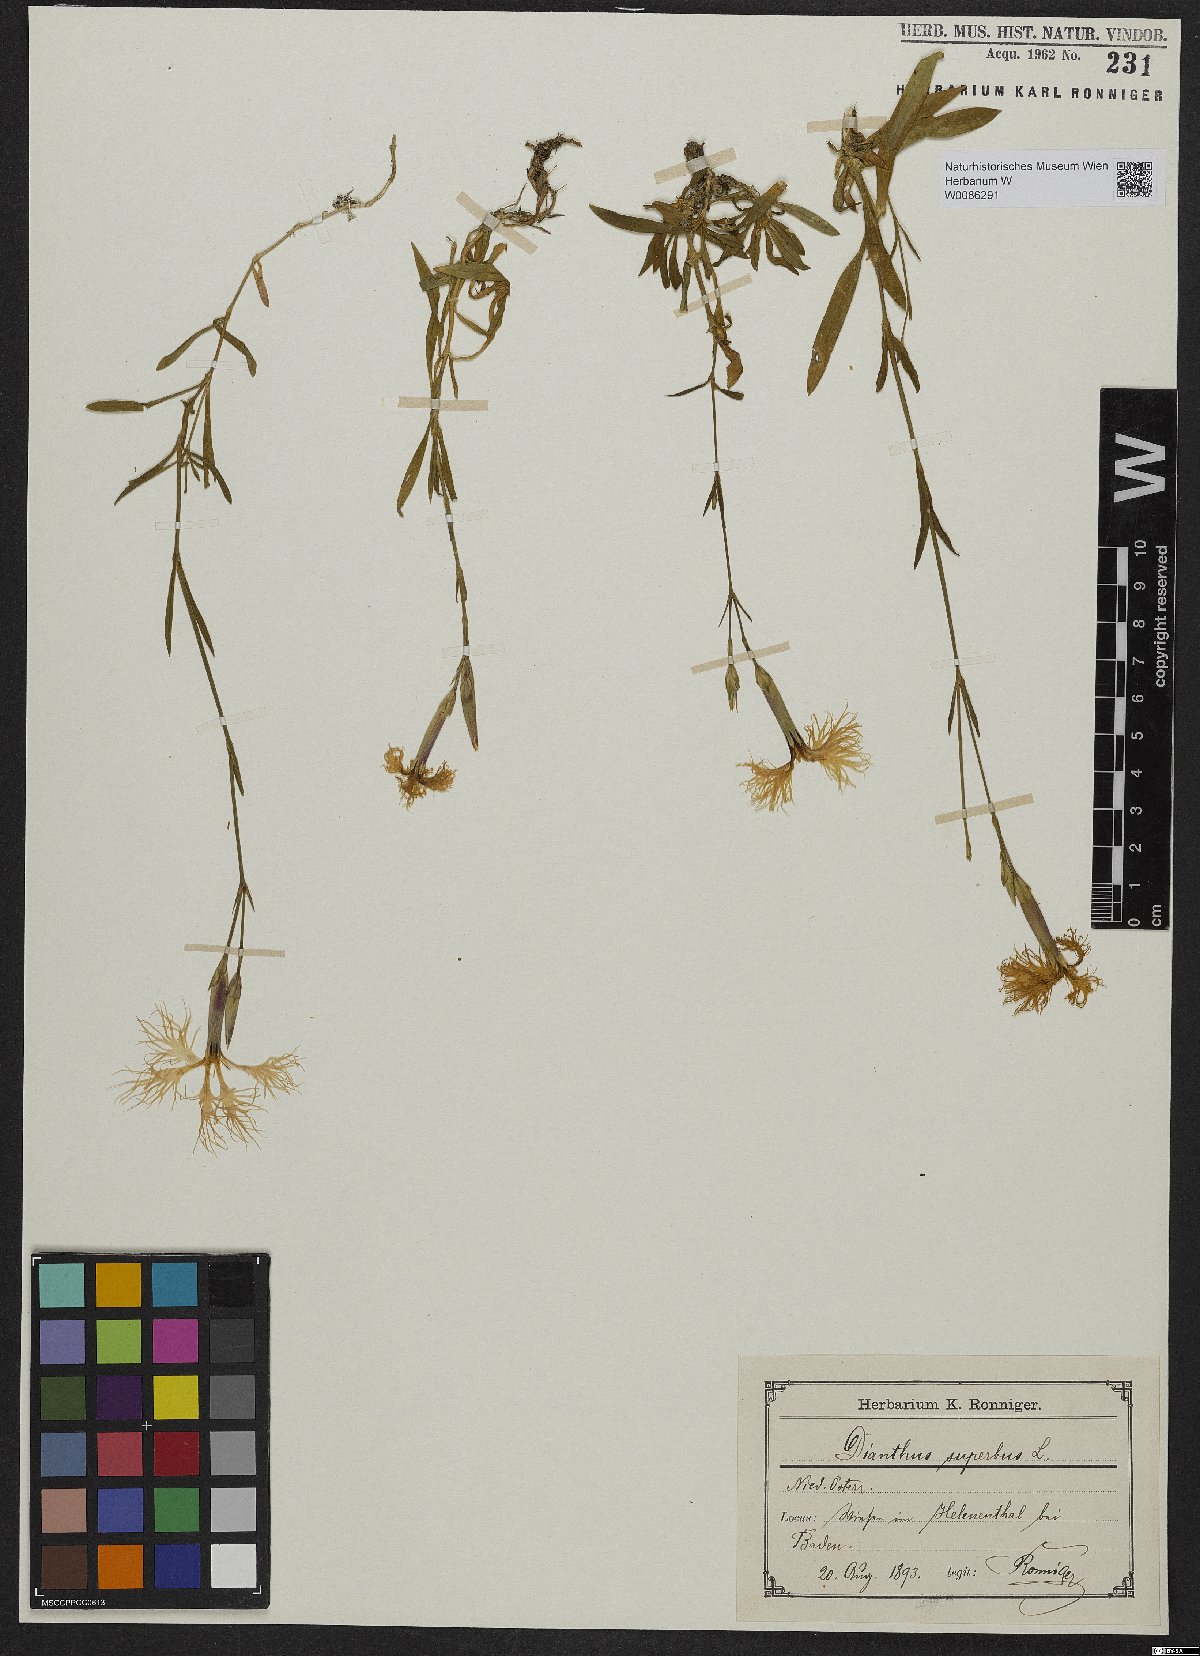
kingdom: Plantae
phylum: Tracheophyta
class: Magnoliopsida
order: Caryophyllales
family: Caryophyllaceae
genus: Dianthus
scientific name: Dianthus superbus
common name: Fringed pink
